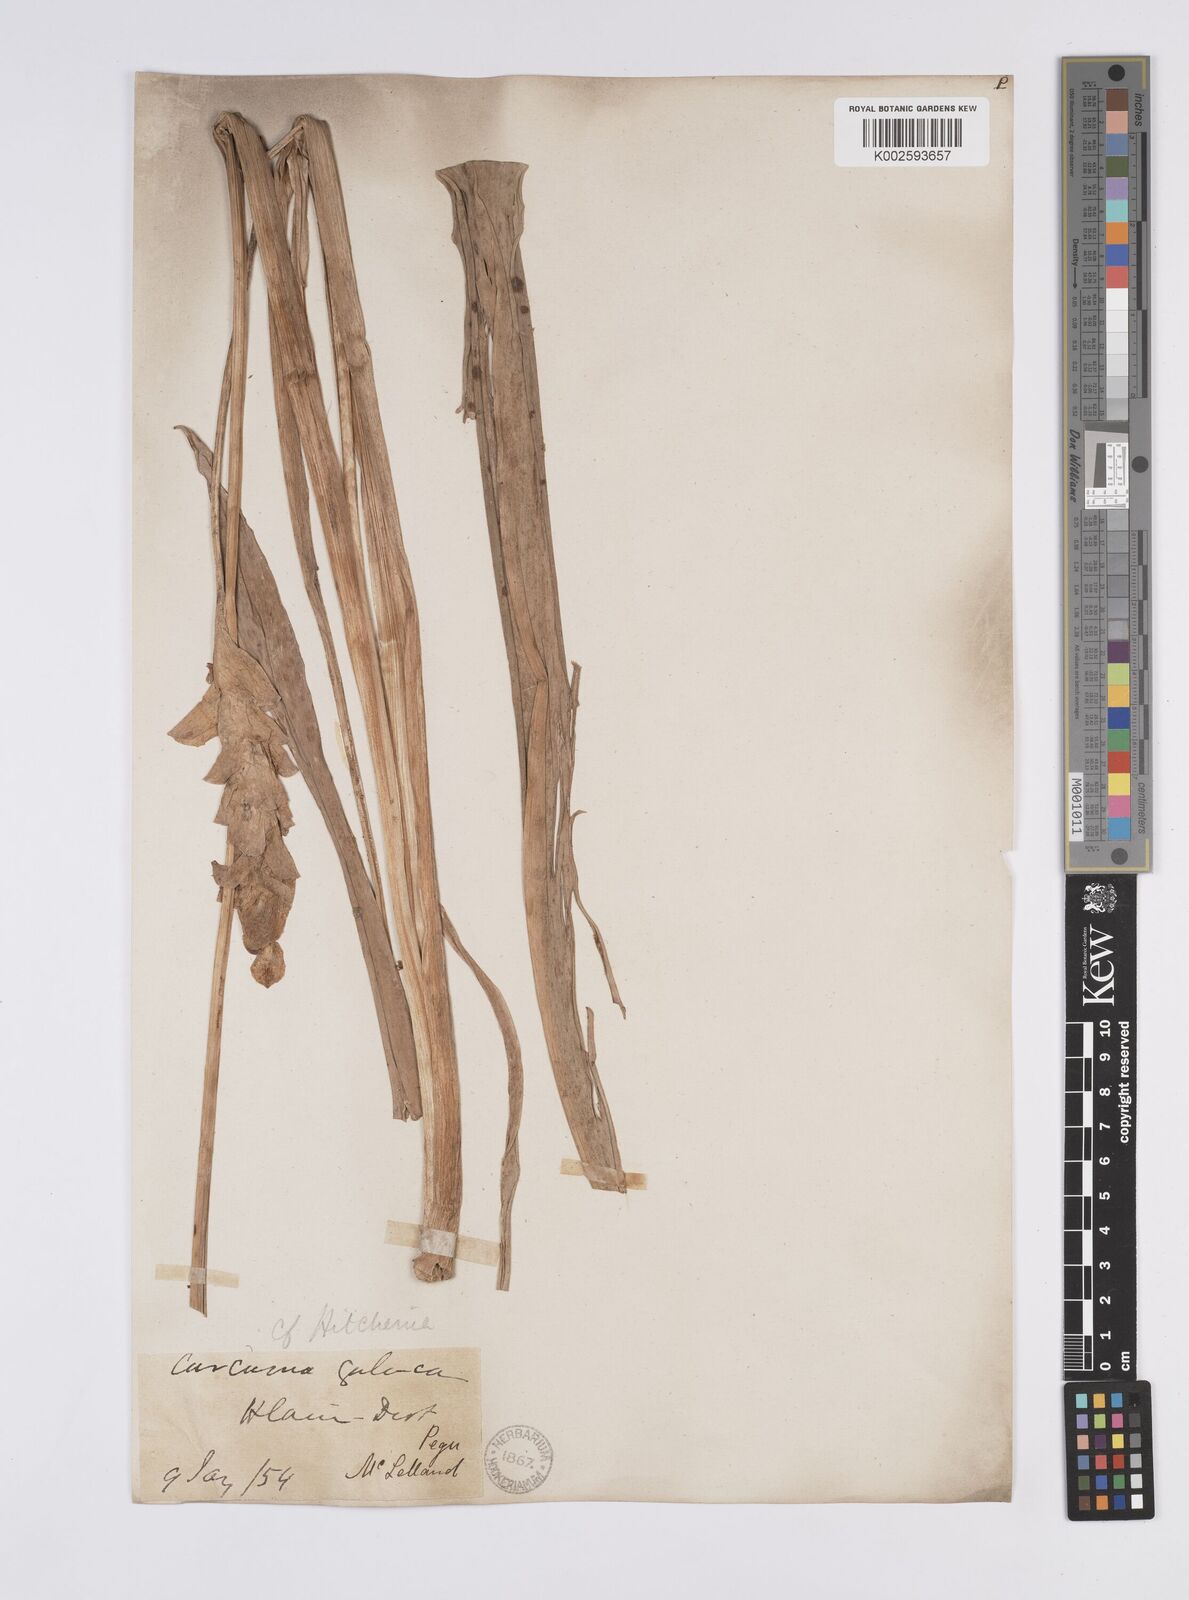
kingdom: Plantae
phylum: Tracheophyta
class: Liliopsida
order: Zingiberales
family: Zingiberaceae
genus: Curcuma
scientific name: Curcuma longa
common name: Turmeric
